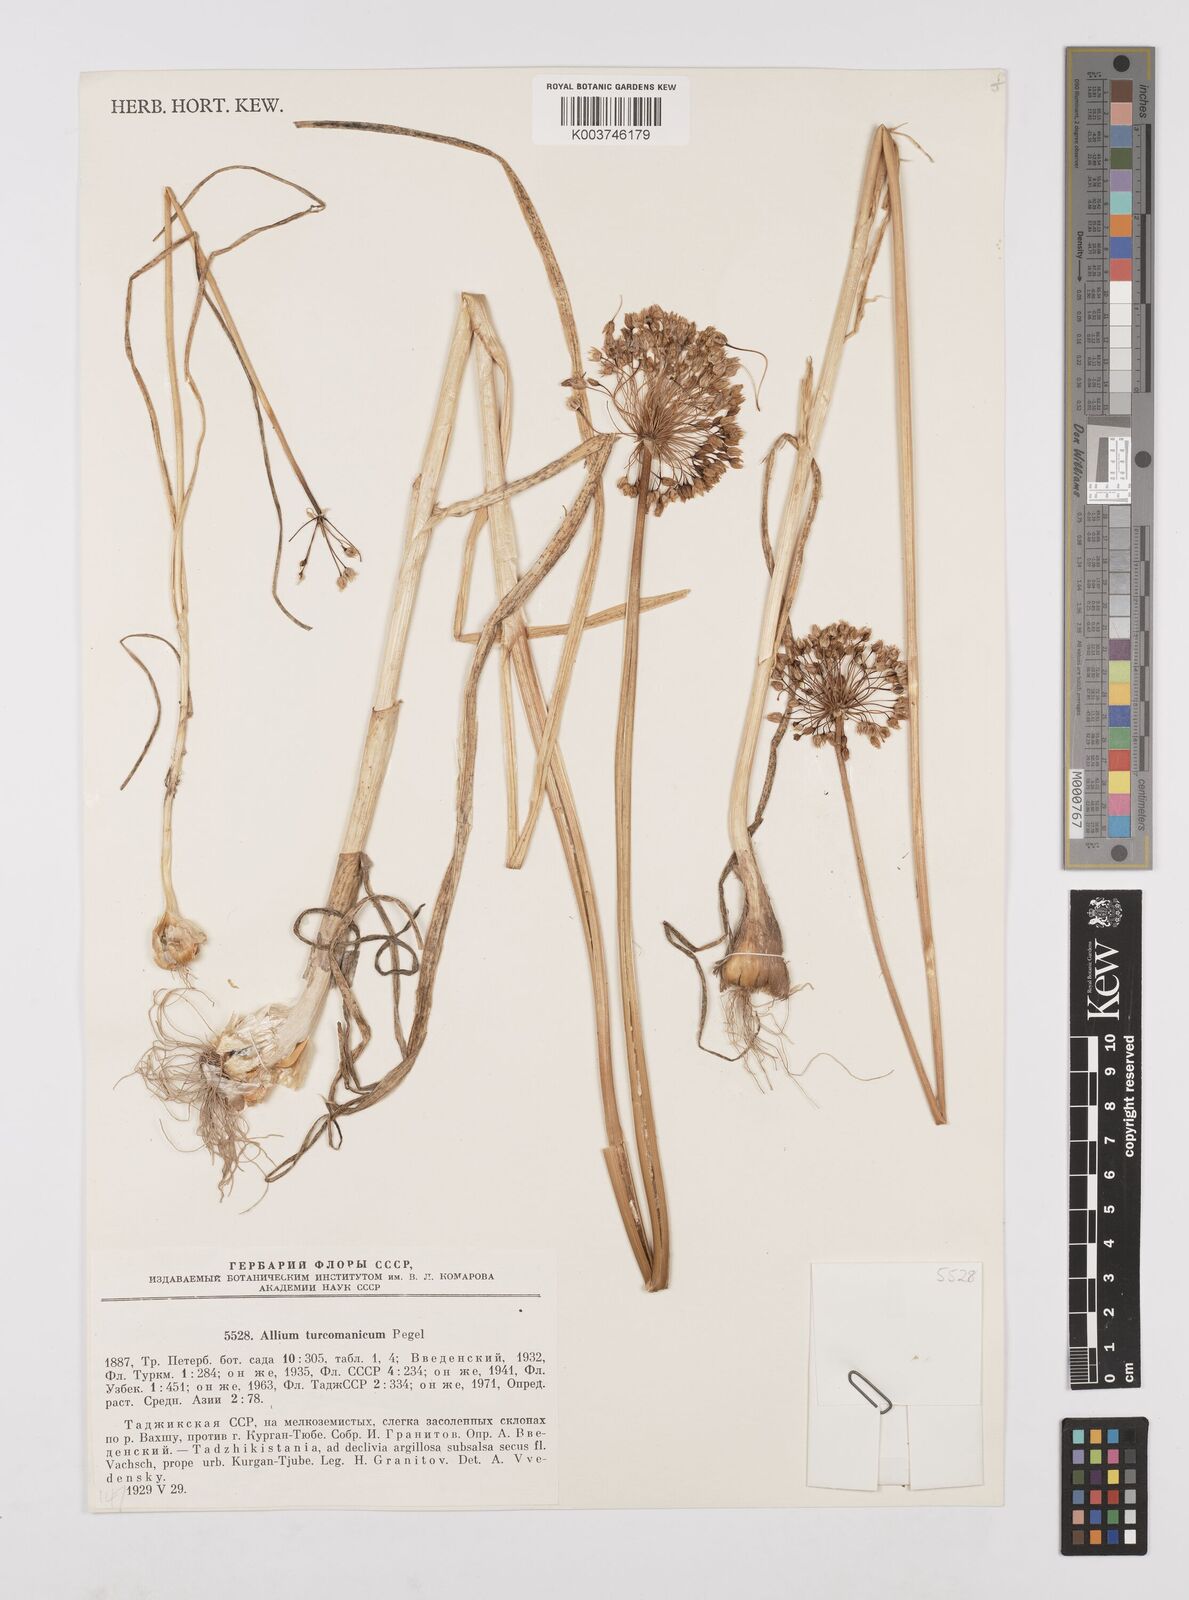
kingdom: Plantae
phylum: Tracheophyta
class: Liliopsida
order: Asparagales
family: Amaryllidaceae
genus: Allium
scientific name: Allium turcomanicum
